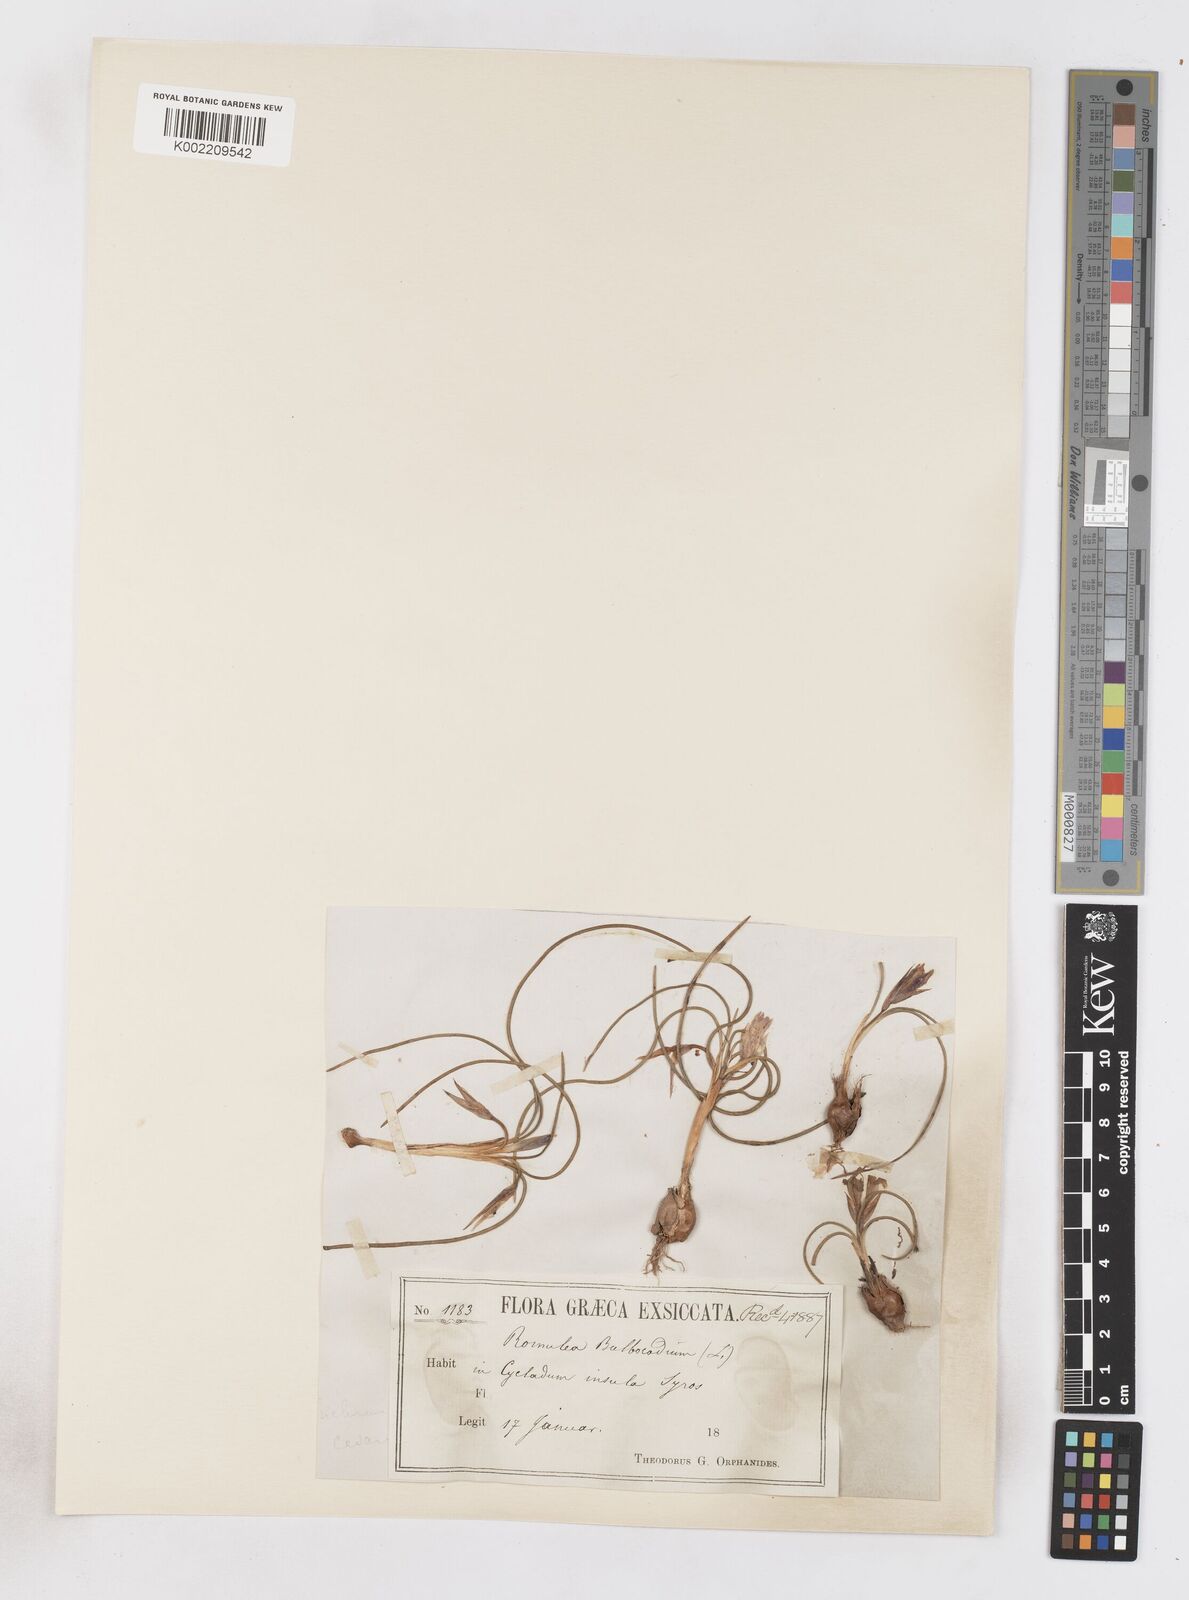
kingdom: Plantae
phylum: Tracheophyta
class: Liliopsida
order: Asparagales
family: Iridaceae
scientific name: Iridaceae
